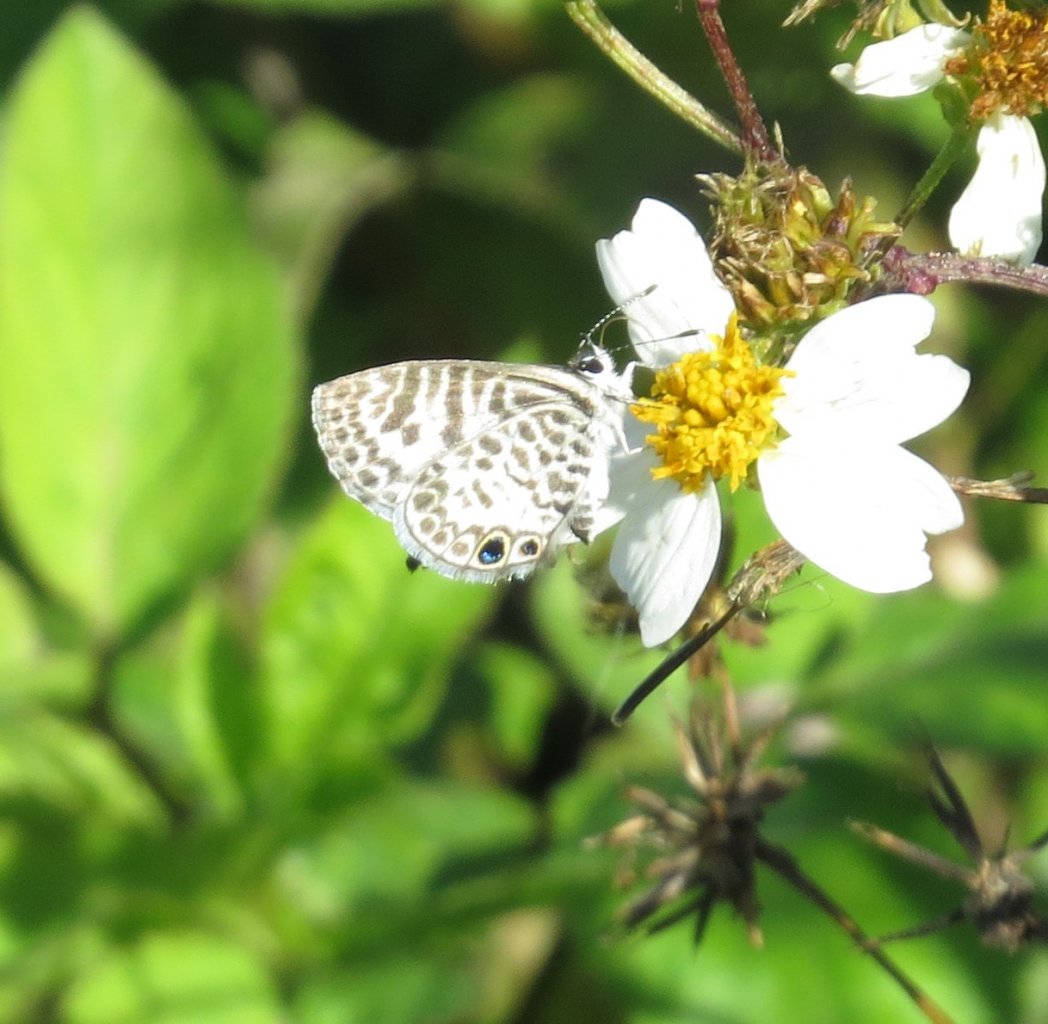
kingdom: Animalia
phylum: Arthropoda
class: Insecta
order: Lepidoptera
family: Lycaenidae
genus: Leptotes
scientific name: Leptotes cassius
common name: Cassius Blue
